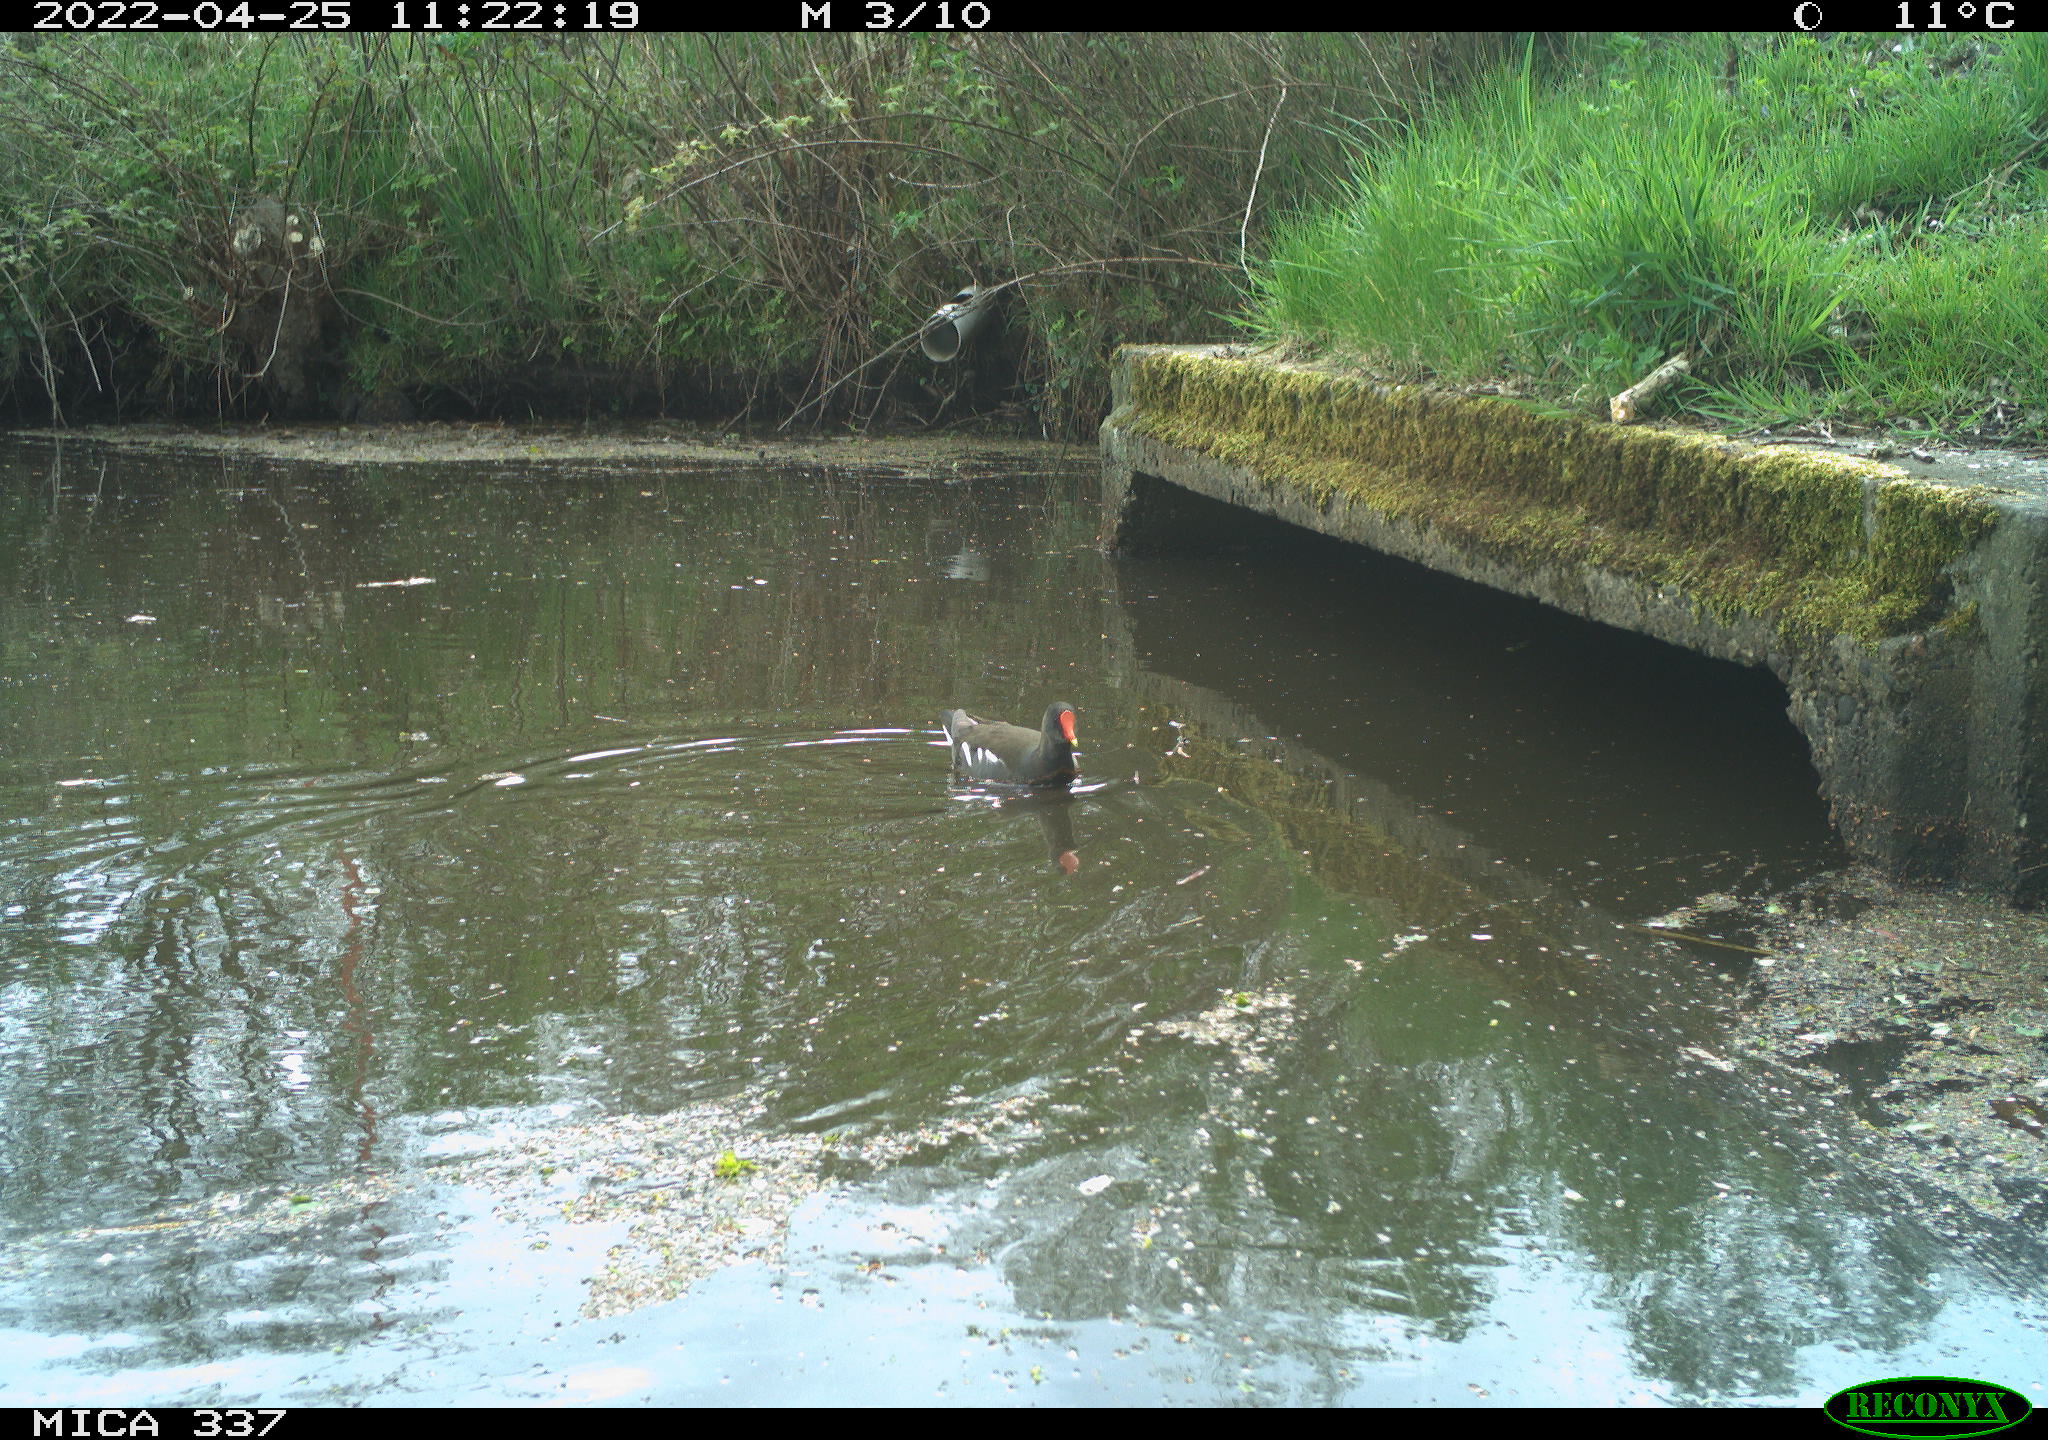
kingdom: Animalia
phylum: Chordata
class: Aves
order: Gruiformes
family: Rallidae
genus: Gallinula
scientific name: Gallinula chloropus
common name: Common moorhen
